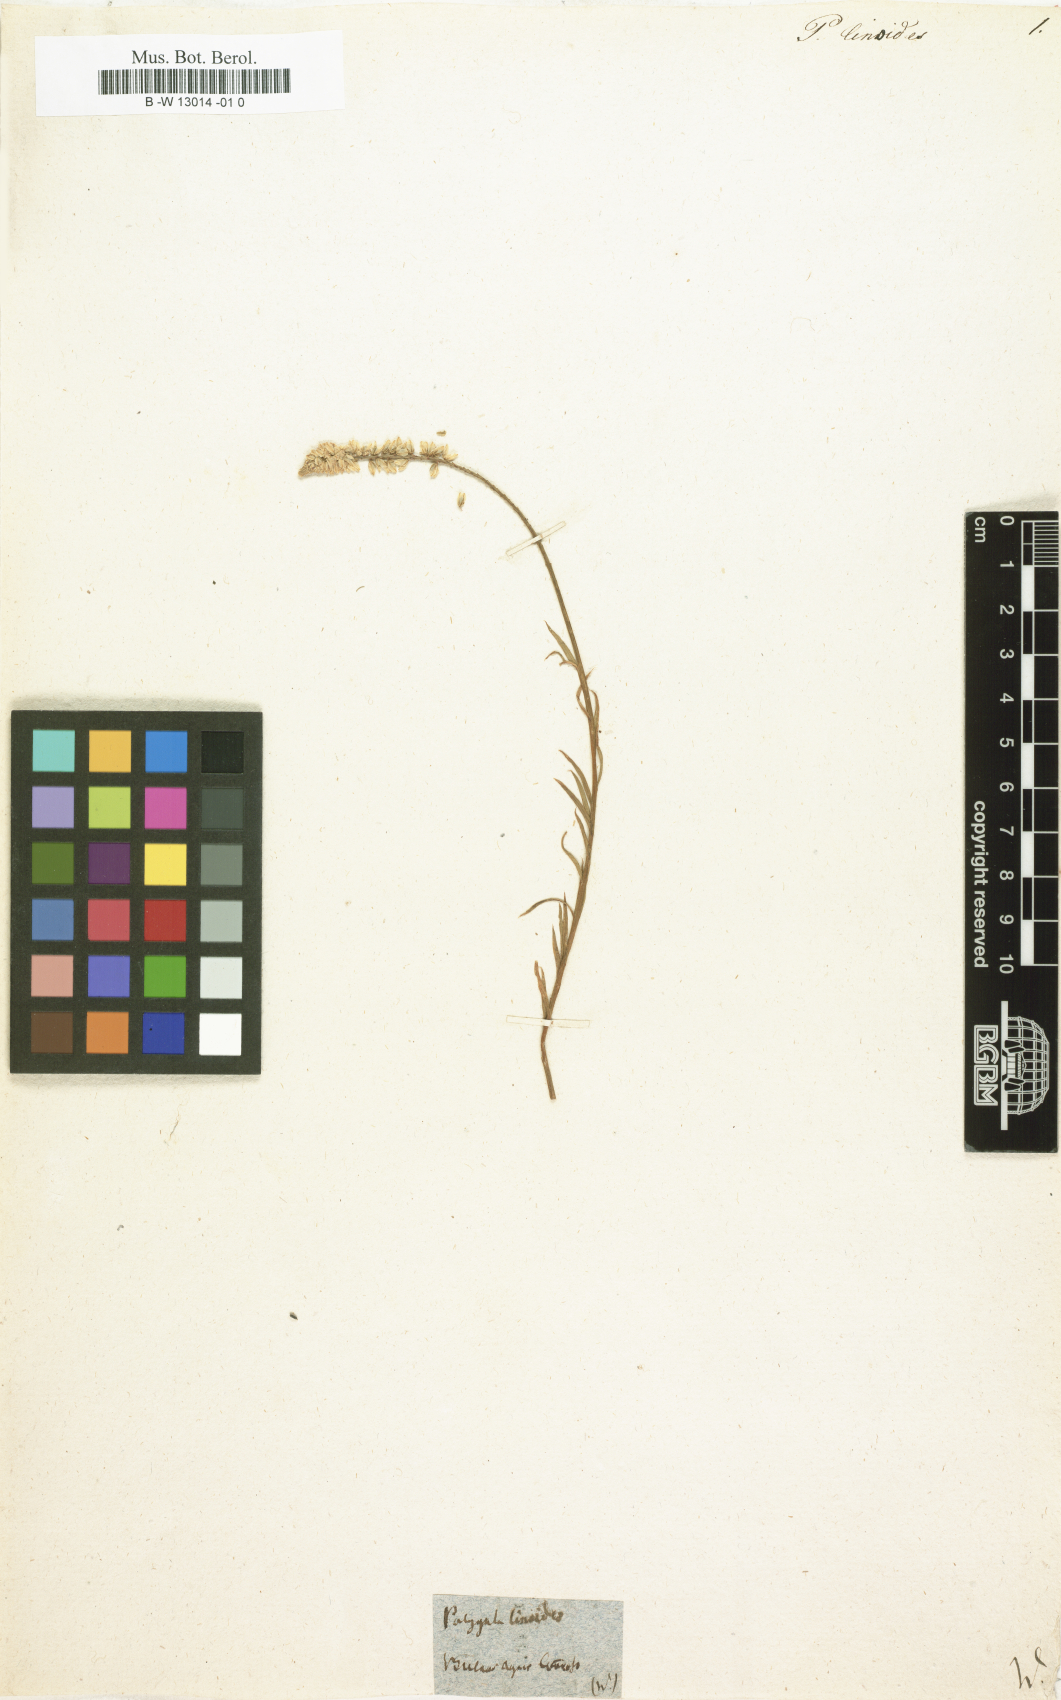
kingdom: Plantae
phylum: Tracheophyta
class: Magnoliopsida
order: Fabales
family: Polygalaceae
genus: Polygala
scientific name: Polygala linoides
